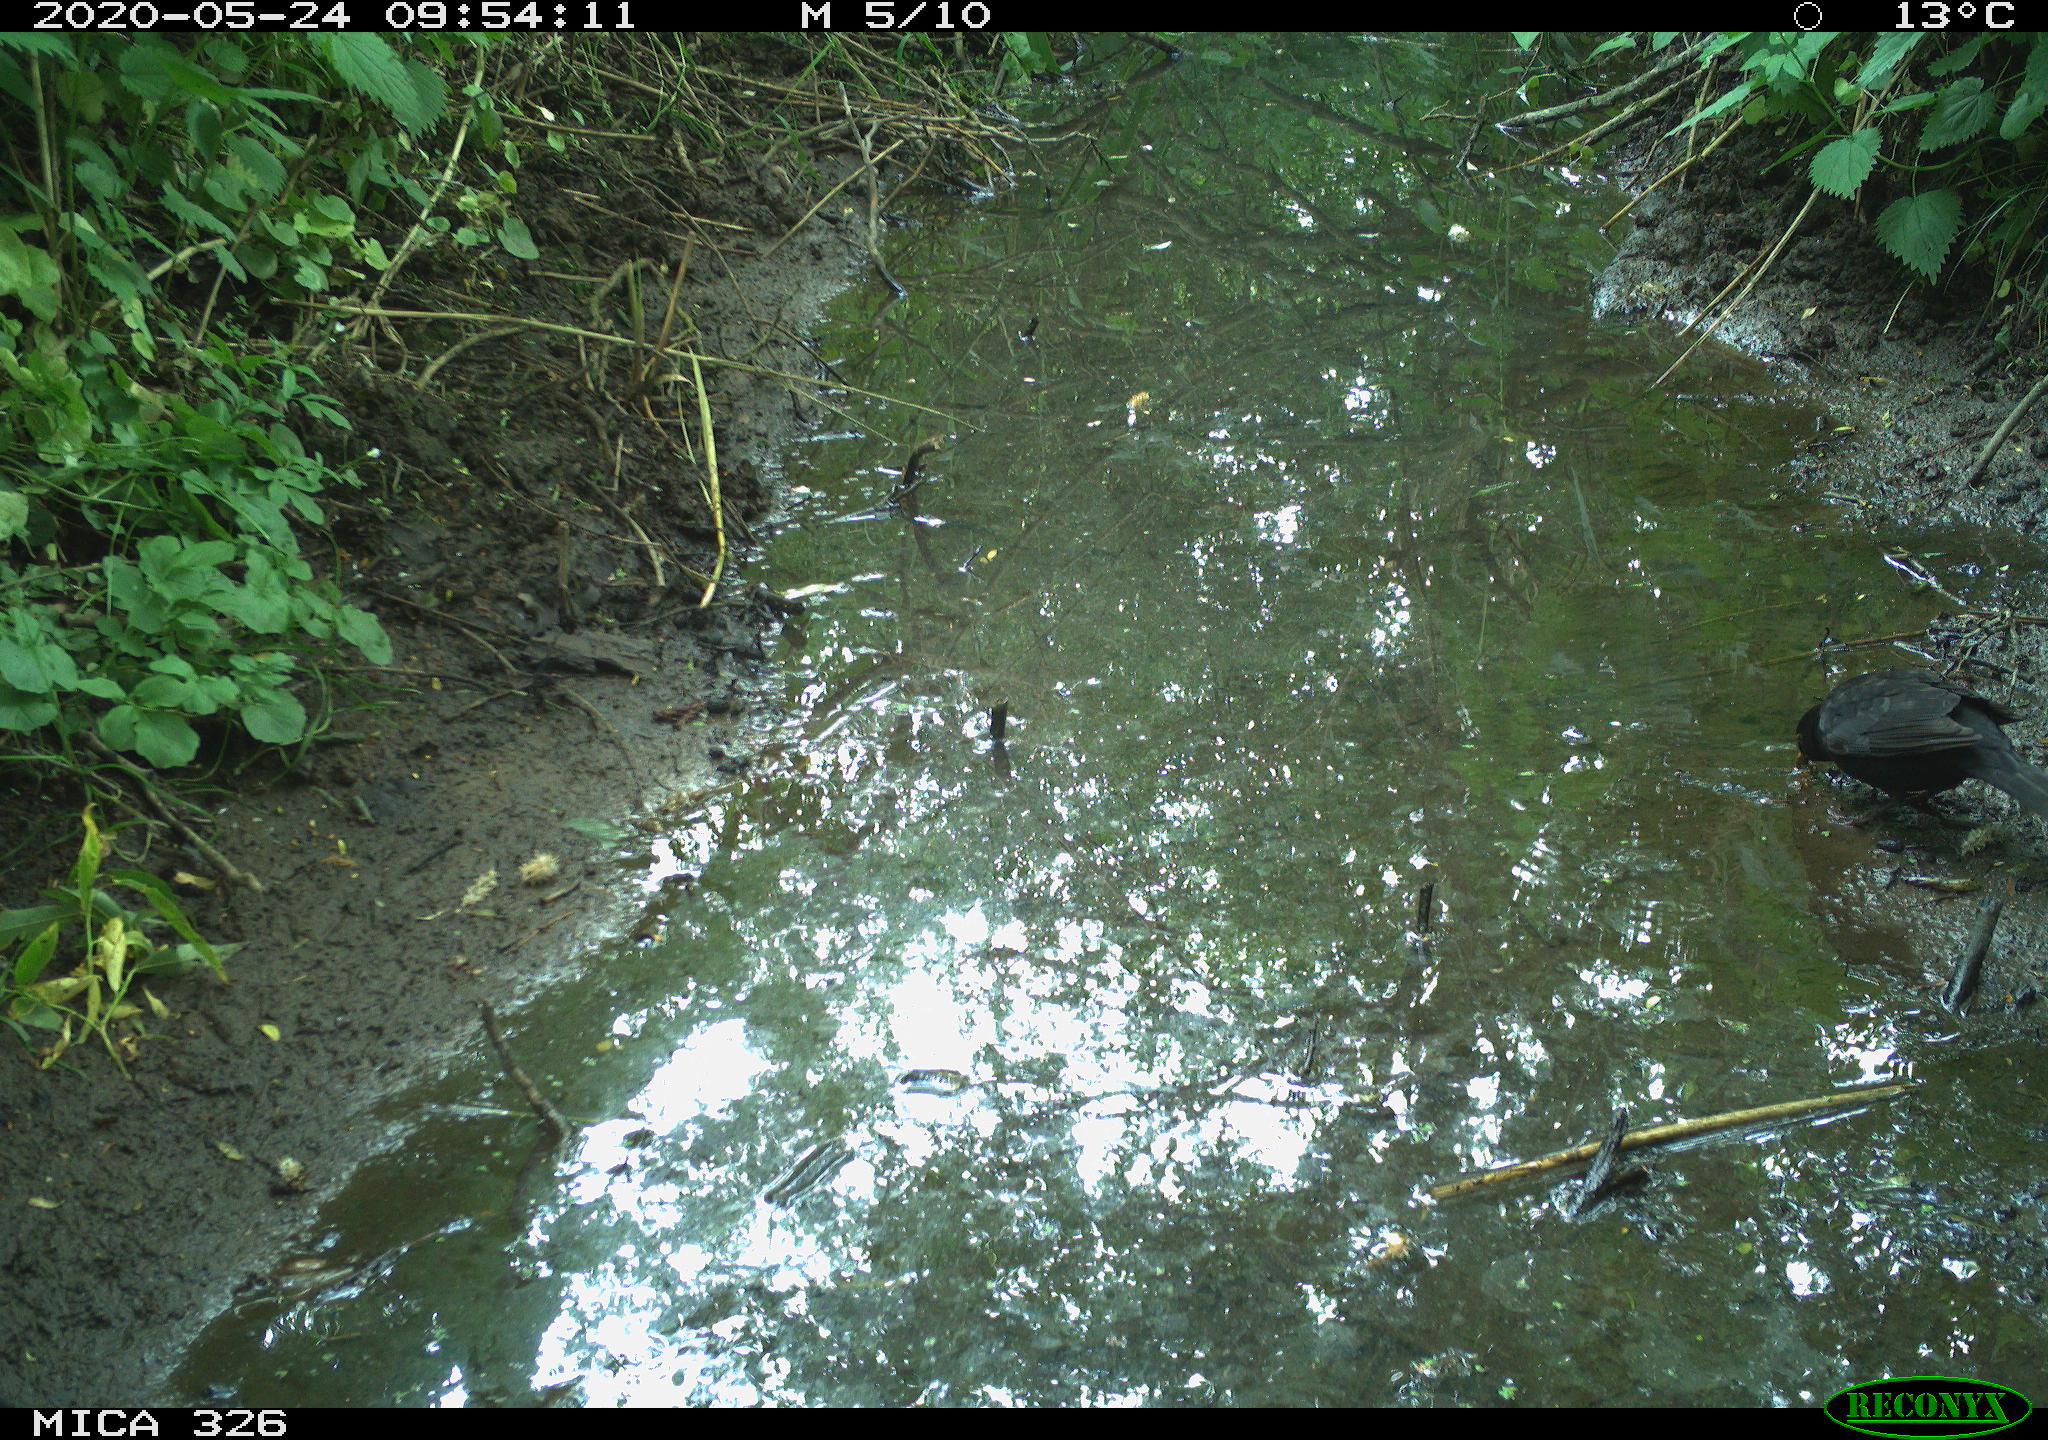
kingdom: Animalia
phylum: Chordata
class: Aves
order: Passeriformes
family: Turdidae
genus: Turdus
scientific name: Turdus merula
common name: Common blackbird
